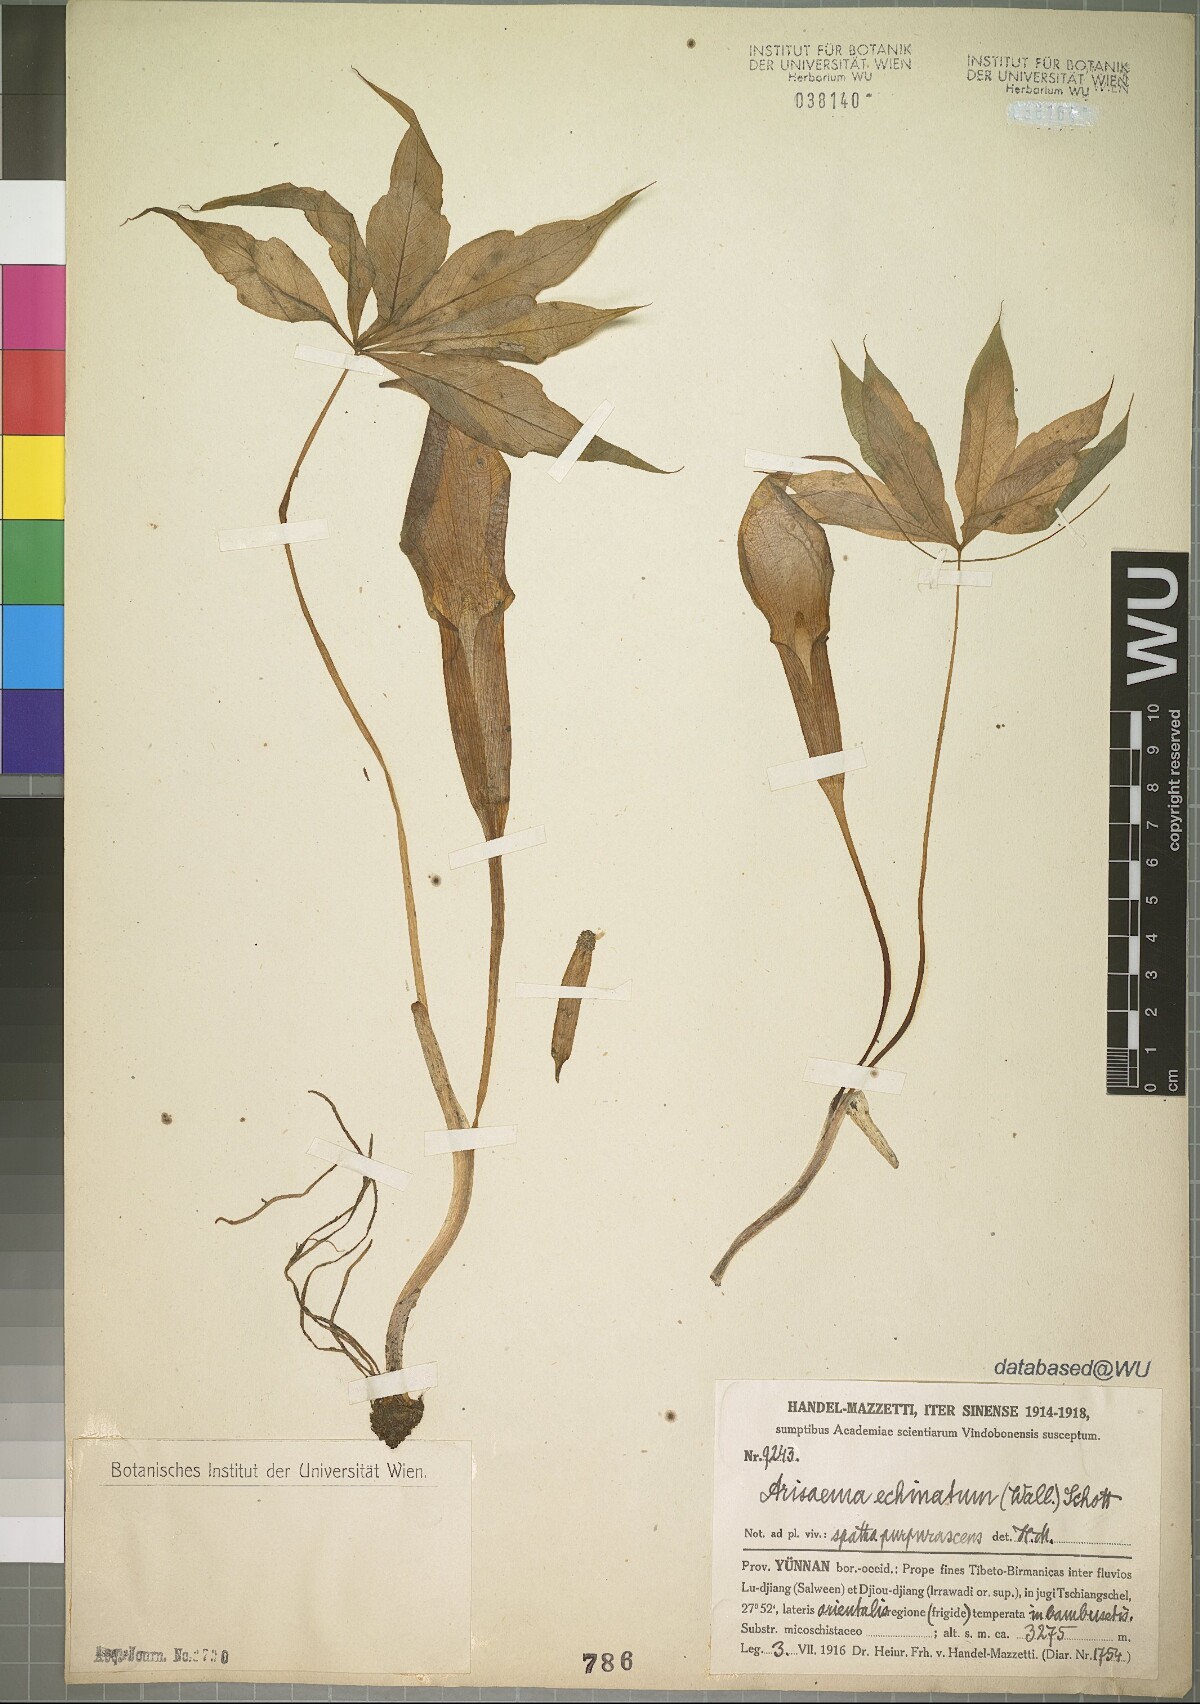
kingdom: Plantae
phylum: Tracheophyta
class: Liliopsida
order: Alismatales
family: Araceae
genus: Arisaema
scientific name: Arisaema echinatum
